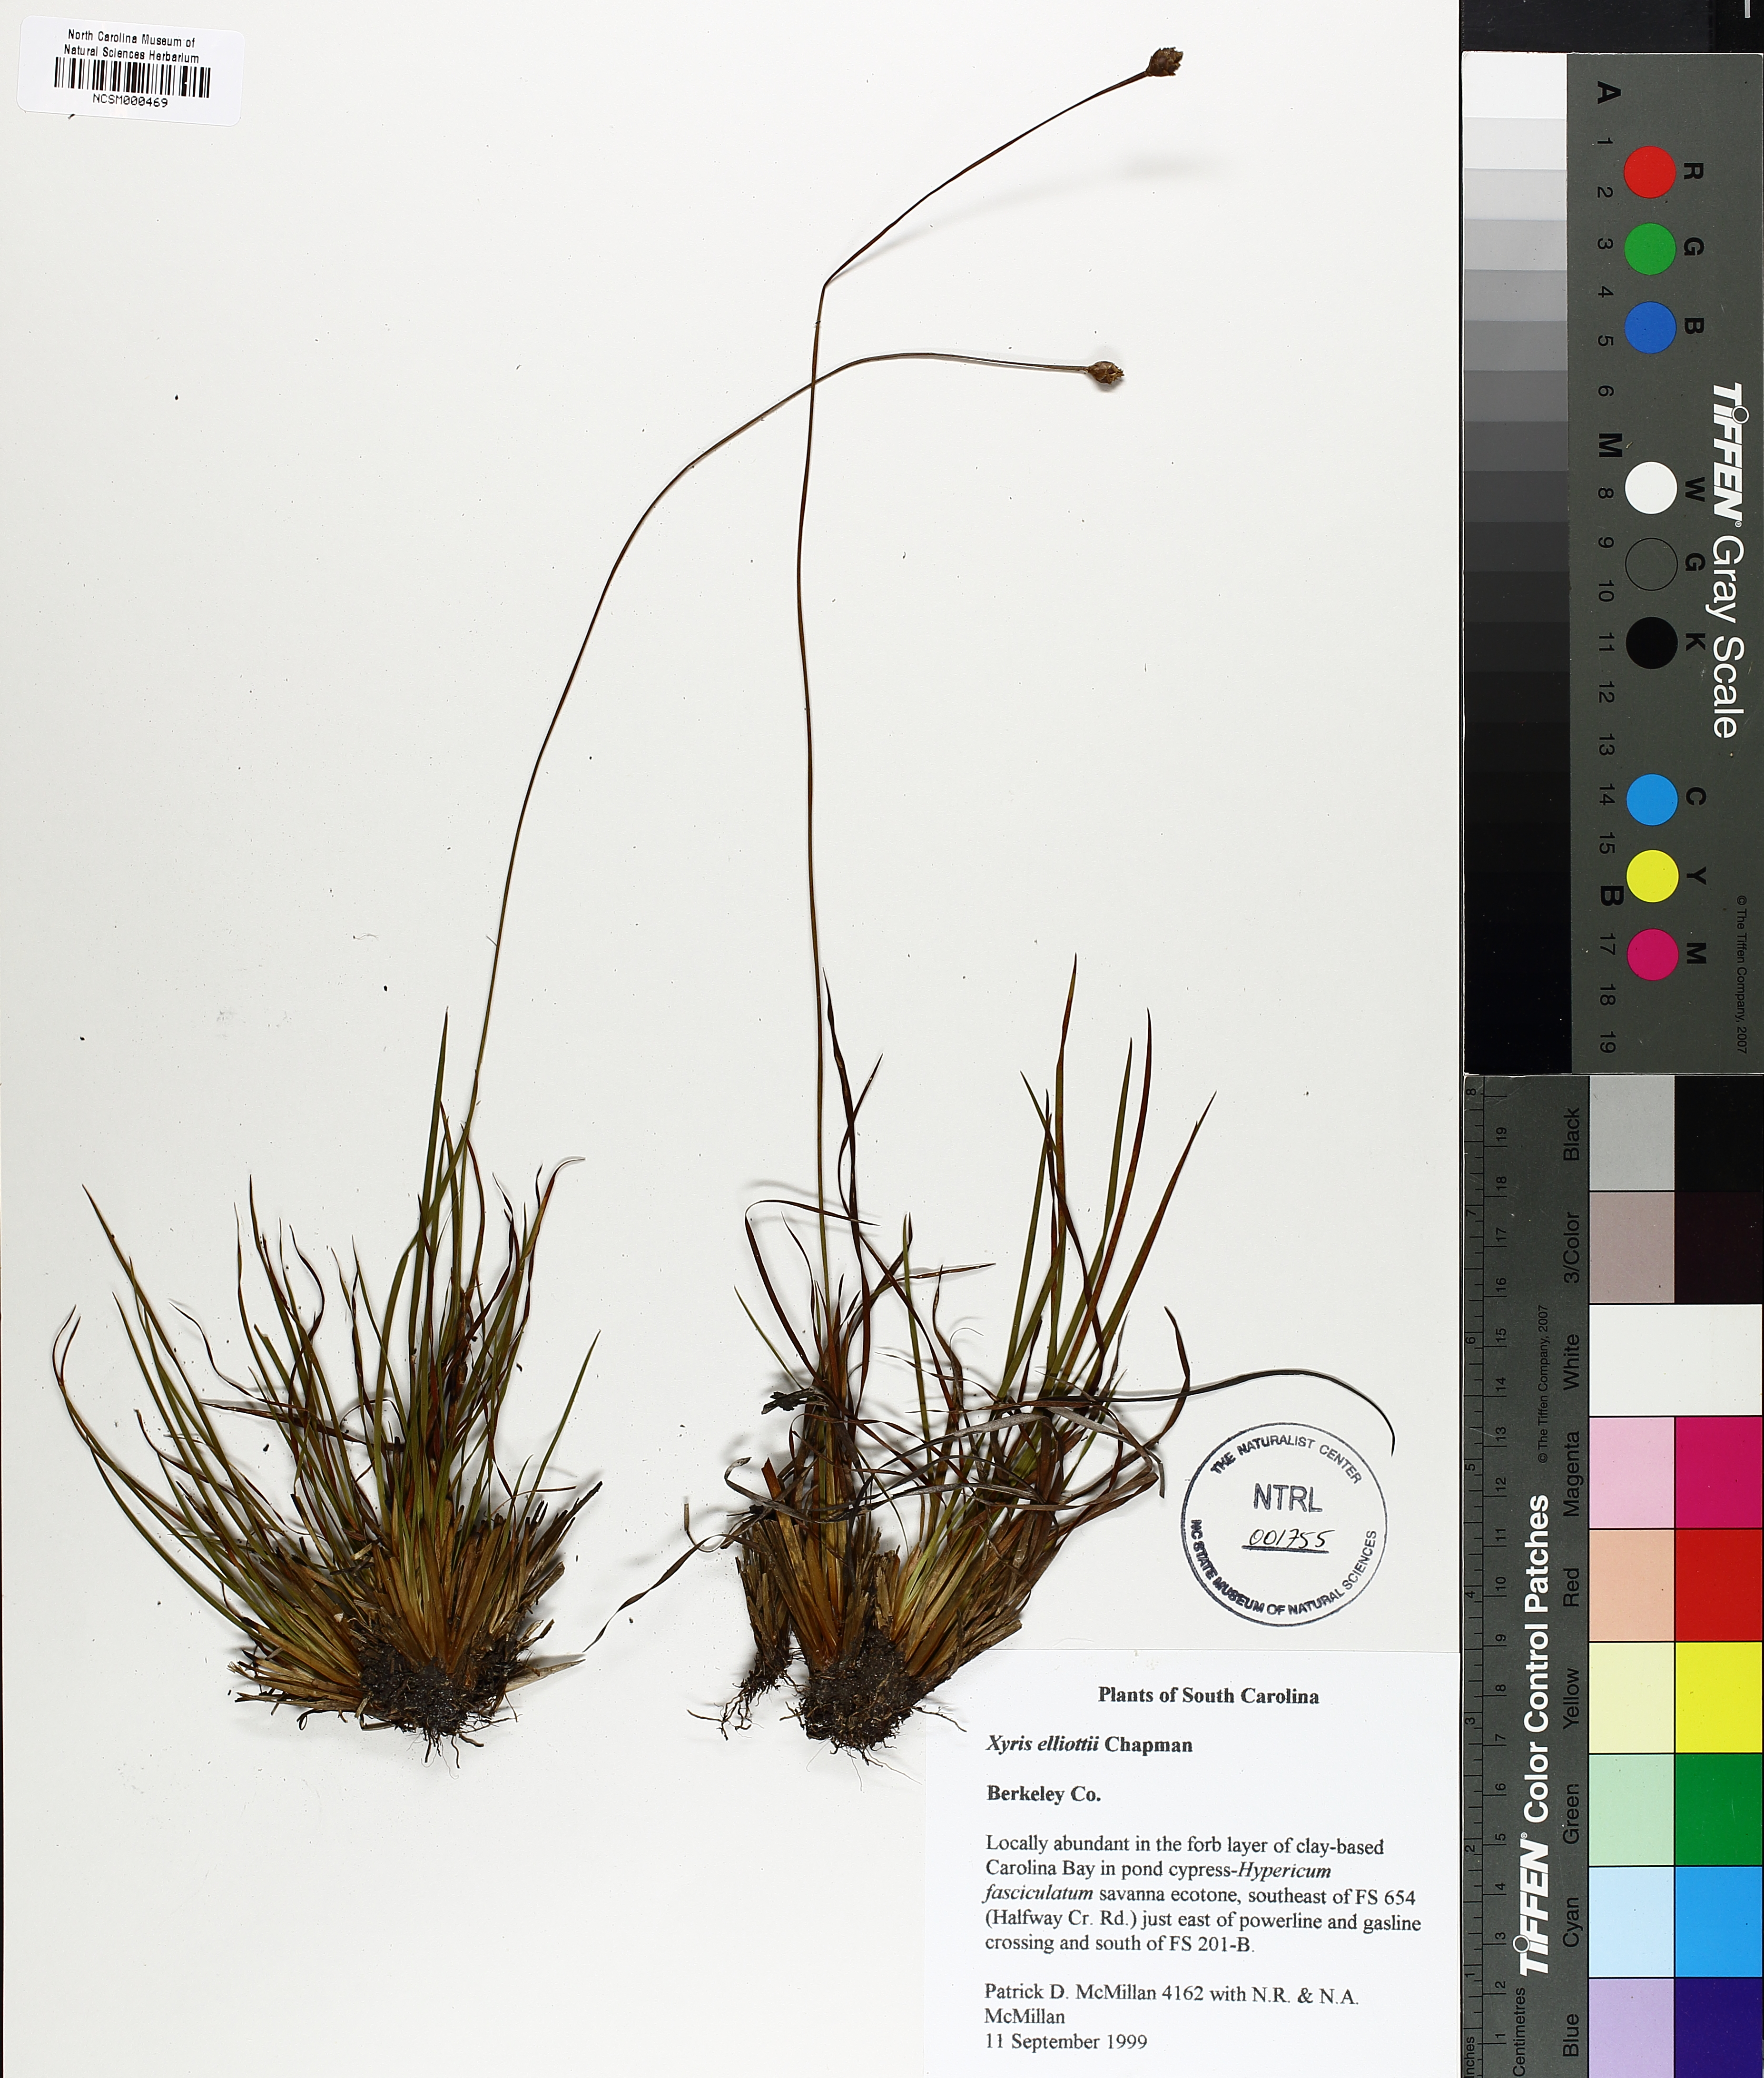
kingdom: Plantae
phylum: Tracheophyta
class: Liliopsida
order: Poales
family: Xyridaceae
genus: Xyris
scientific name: Xyris elliottii
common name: Elliot's yelloweyed grass
